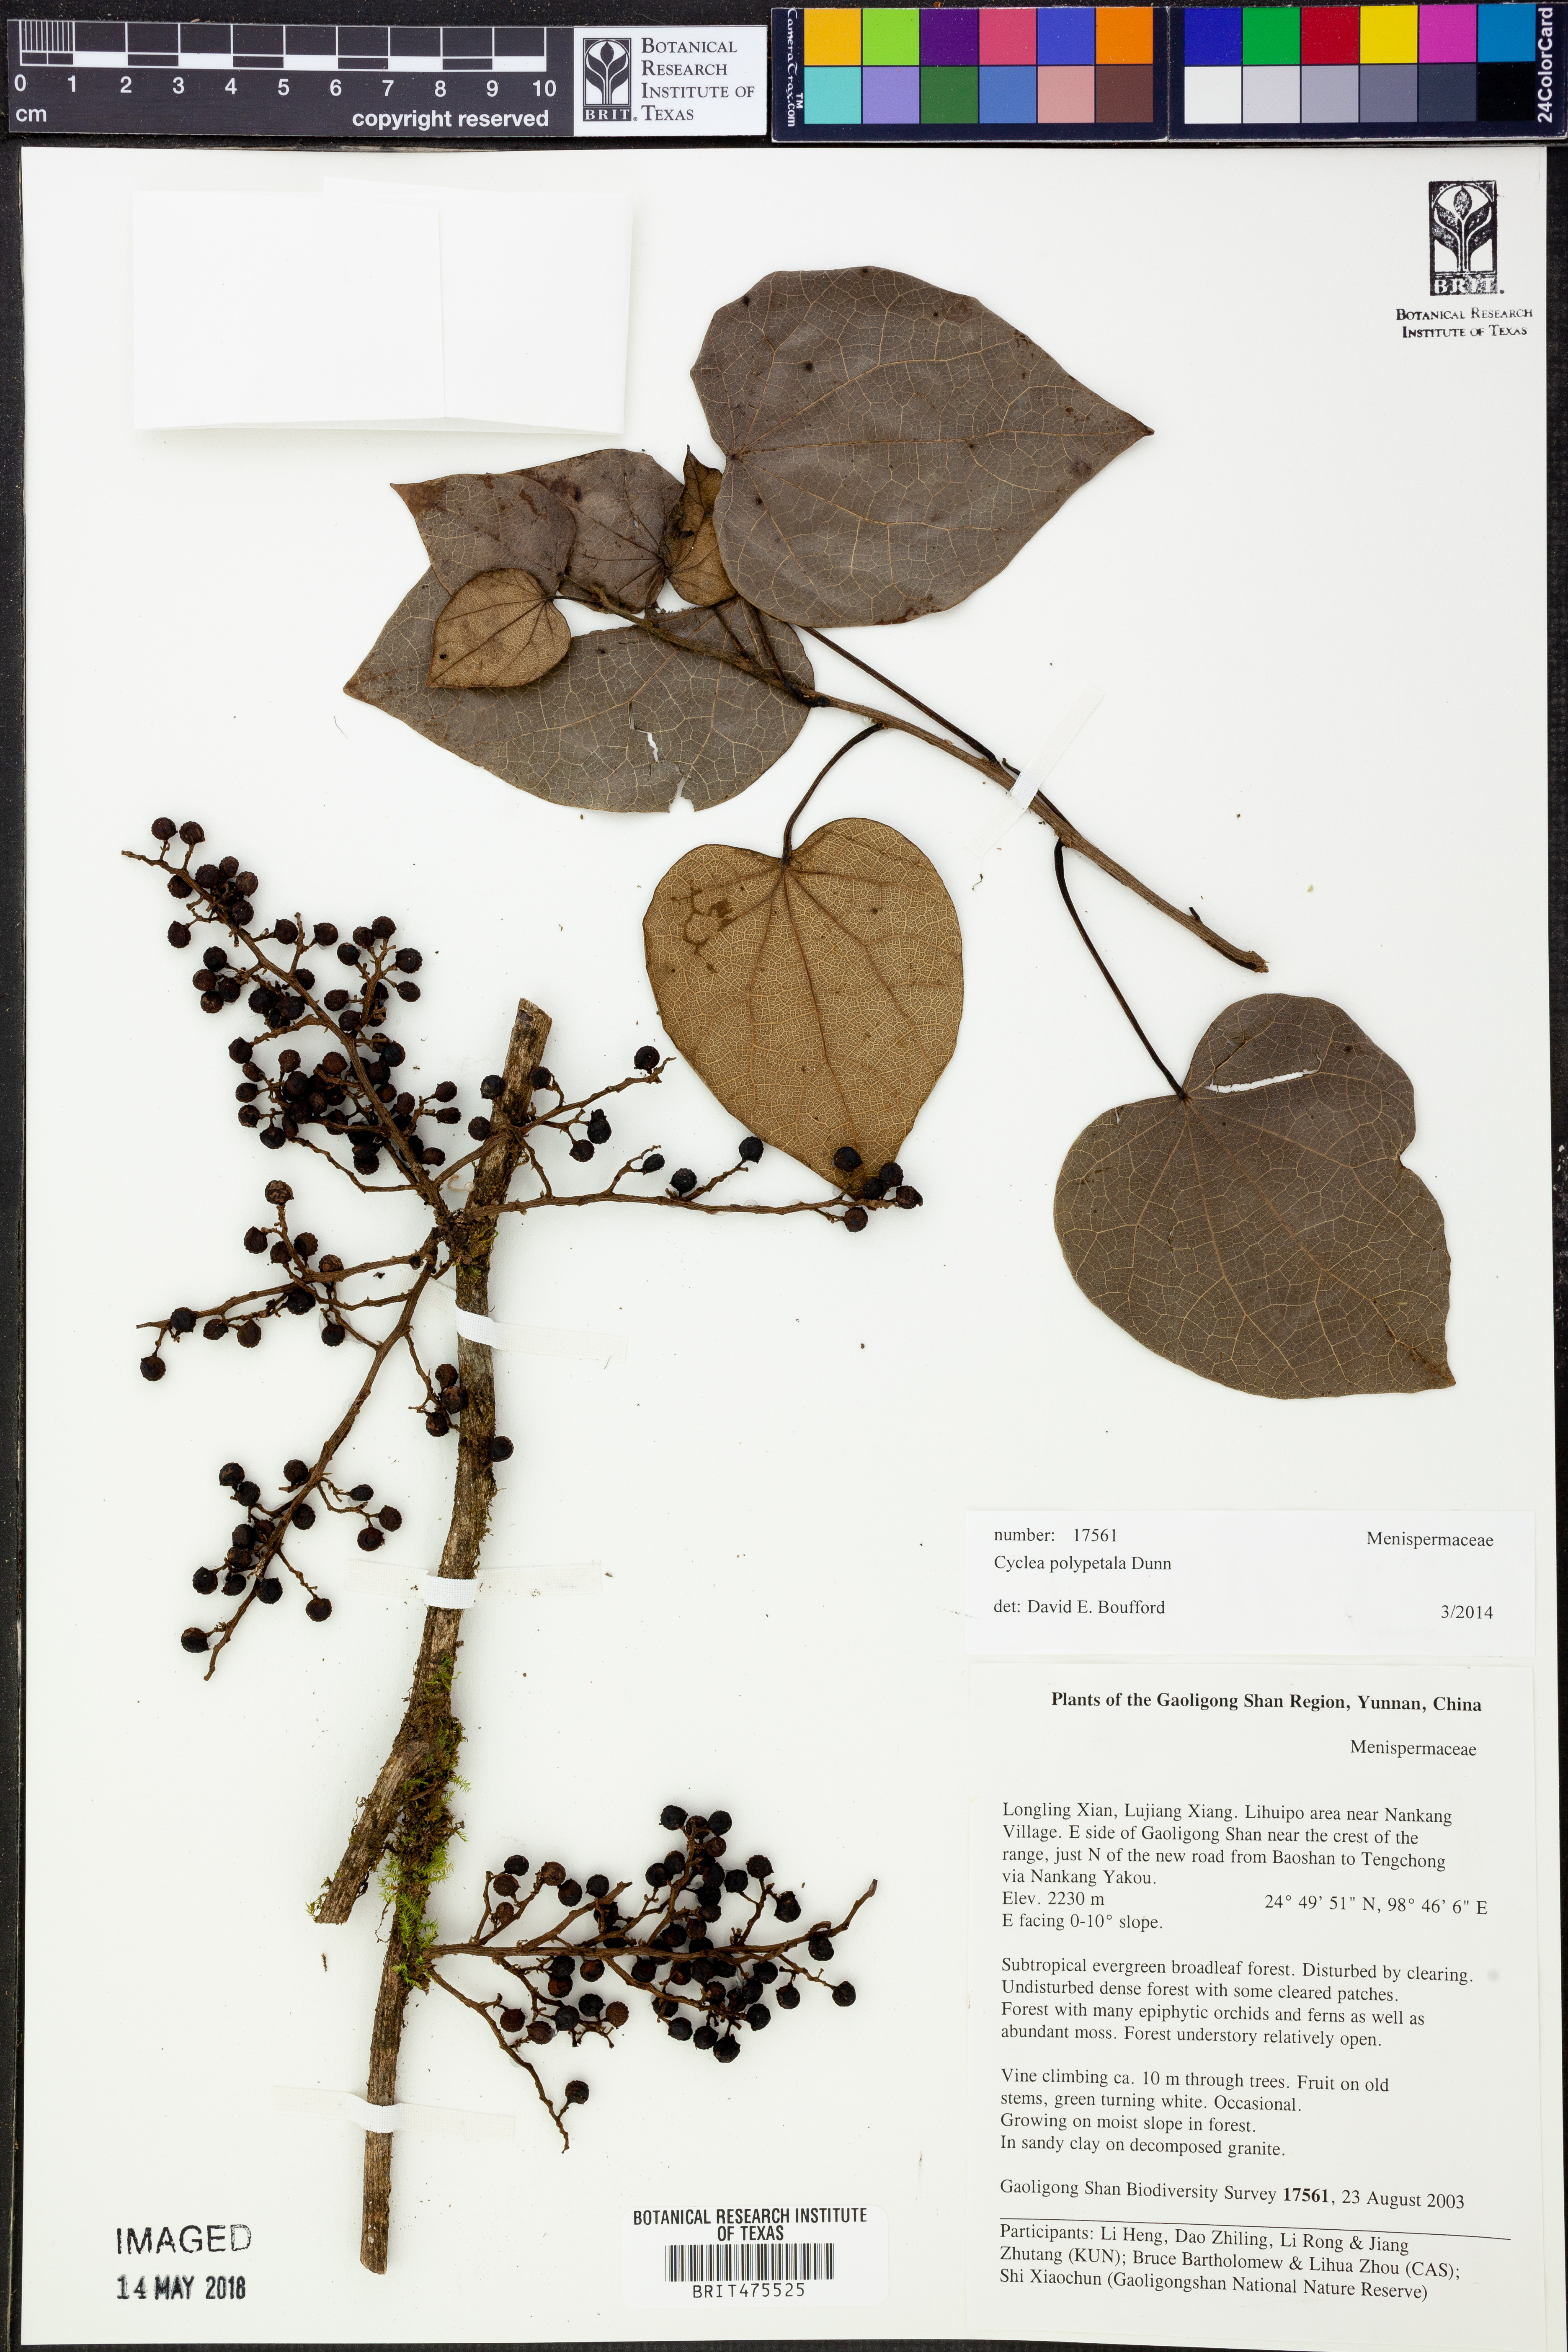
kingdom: Plantae
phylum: Tracheophyta
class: Magnoliopsida
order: Ranunculales
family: Menispermaceae
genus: Cyclea
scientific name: Cyclea polypetala
